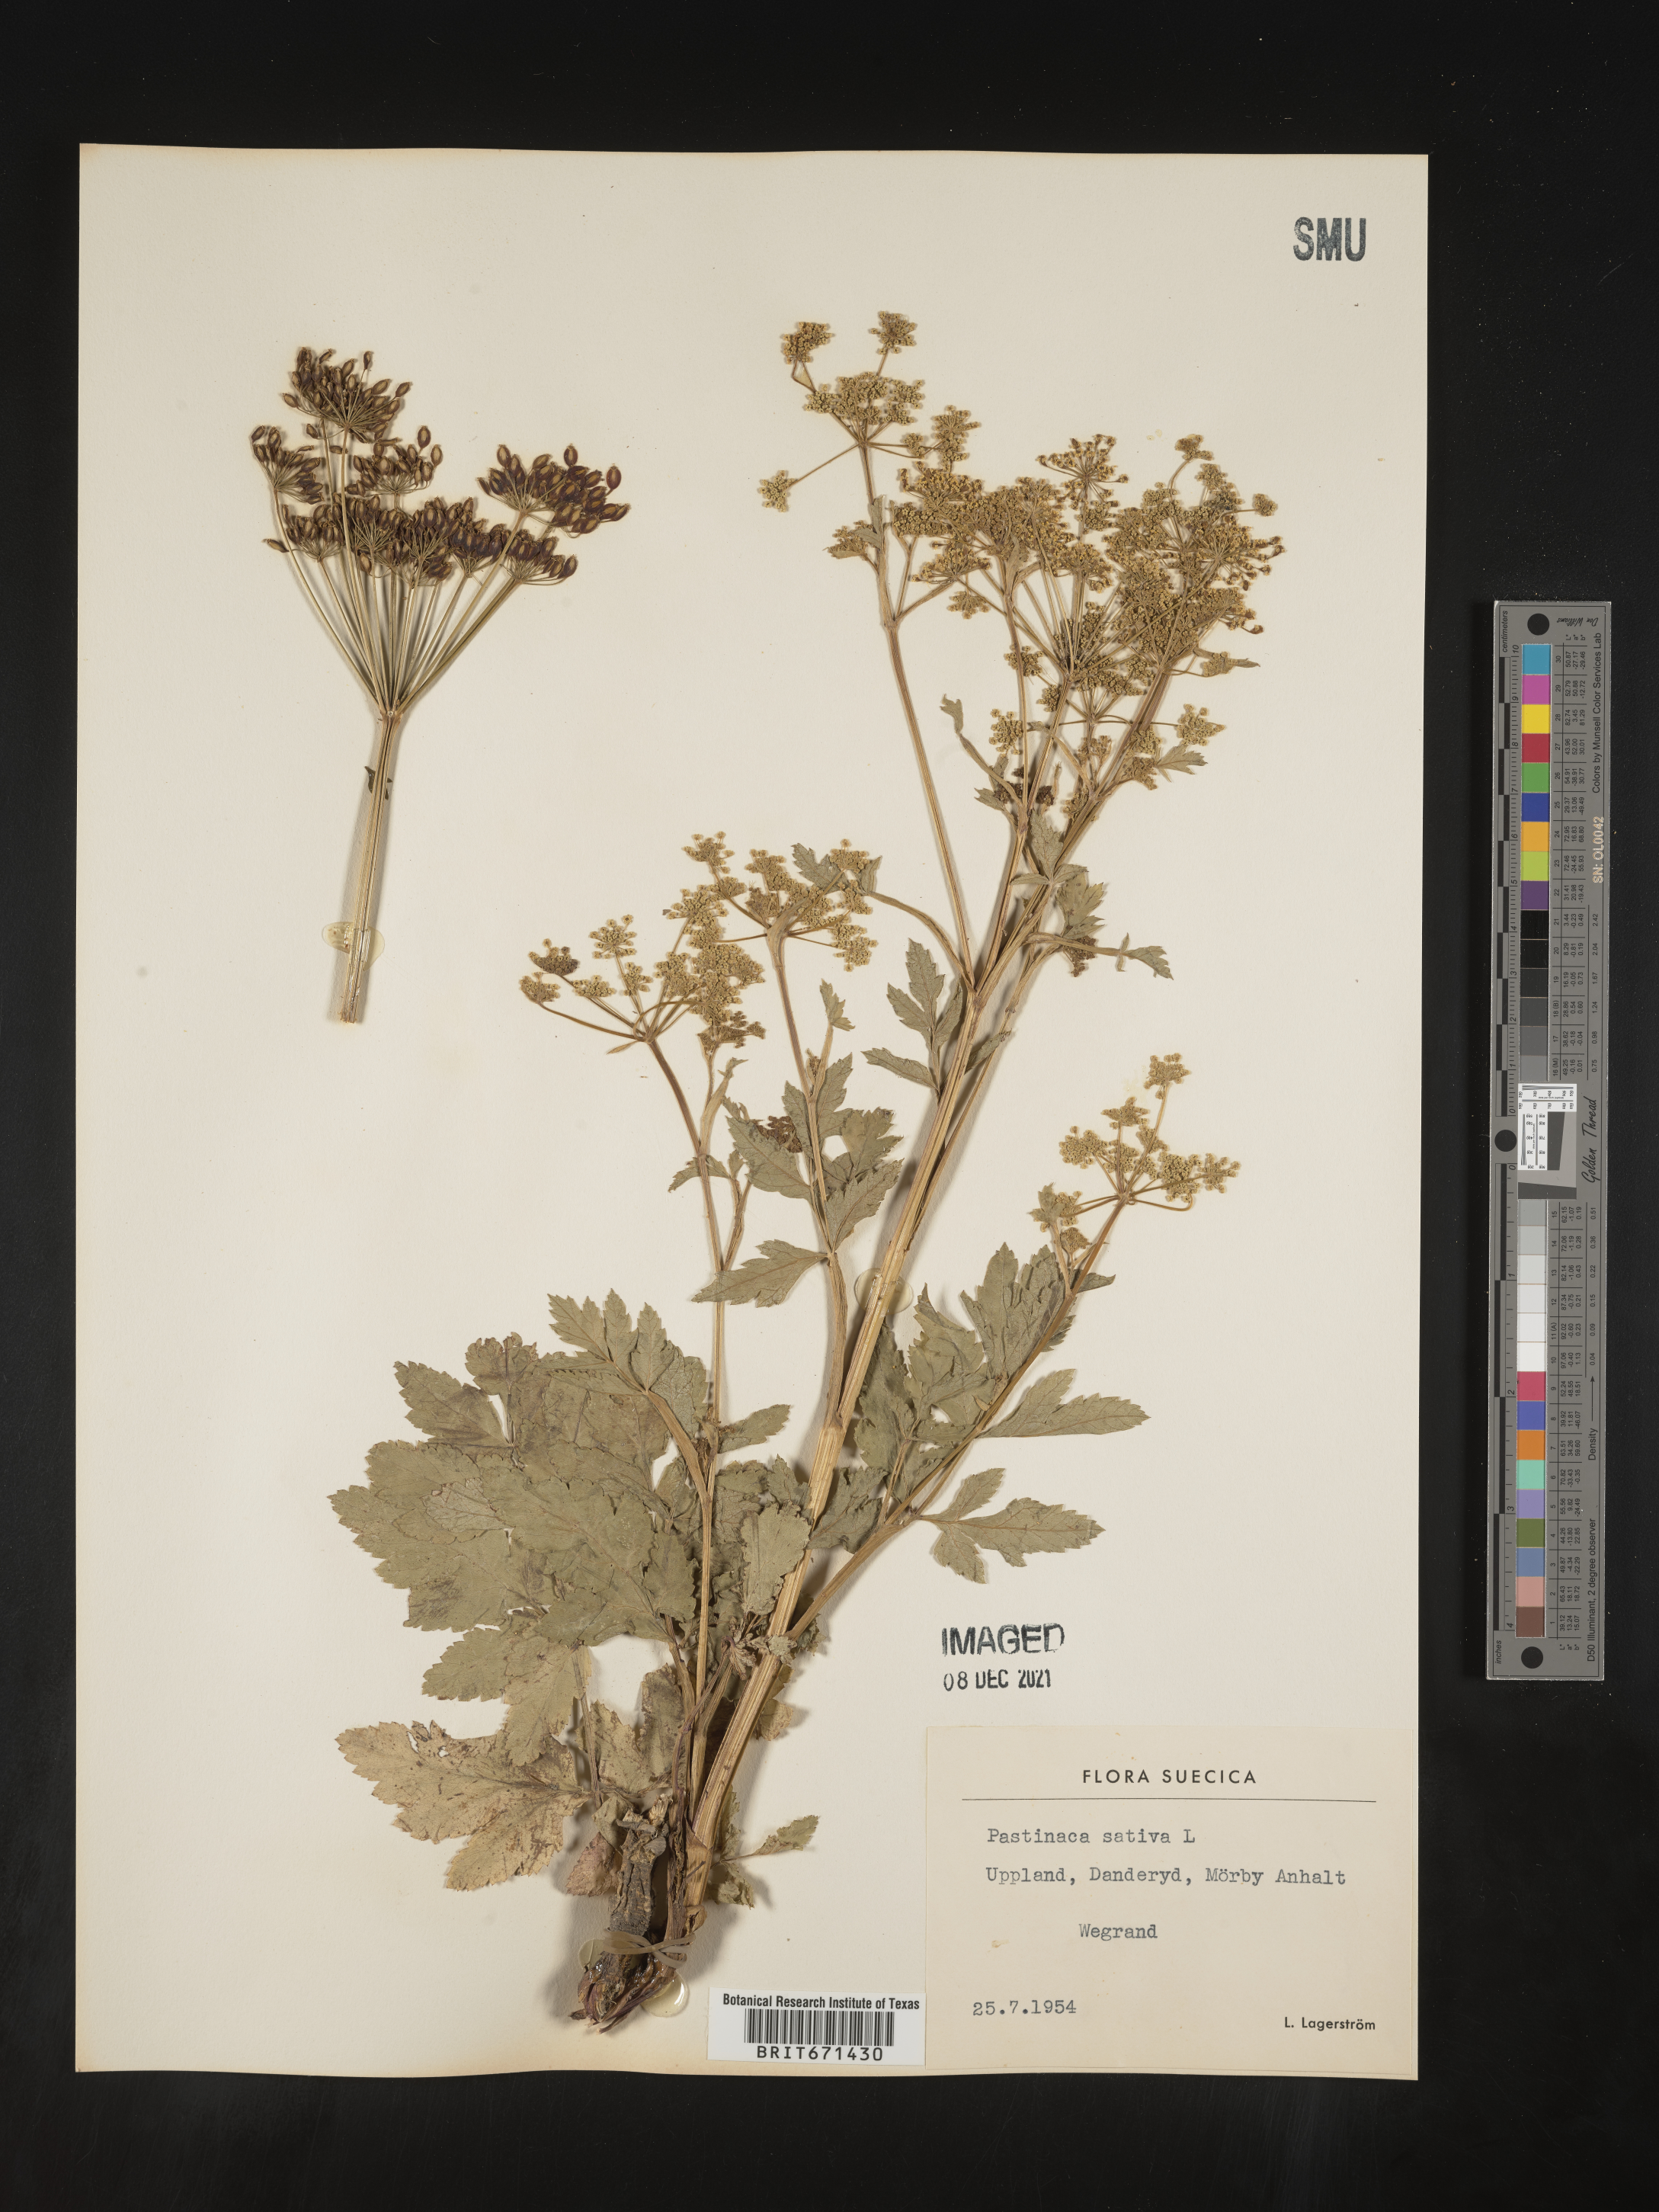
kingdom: Plantae
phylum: Tracheophyta
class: Magnoliopsida
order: Apiales
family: Apiaceae
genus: Pastinaca
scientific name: Pastinaca
